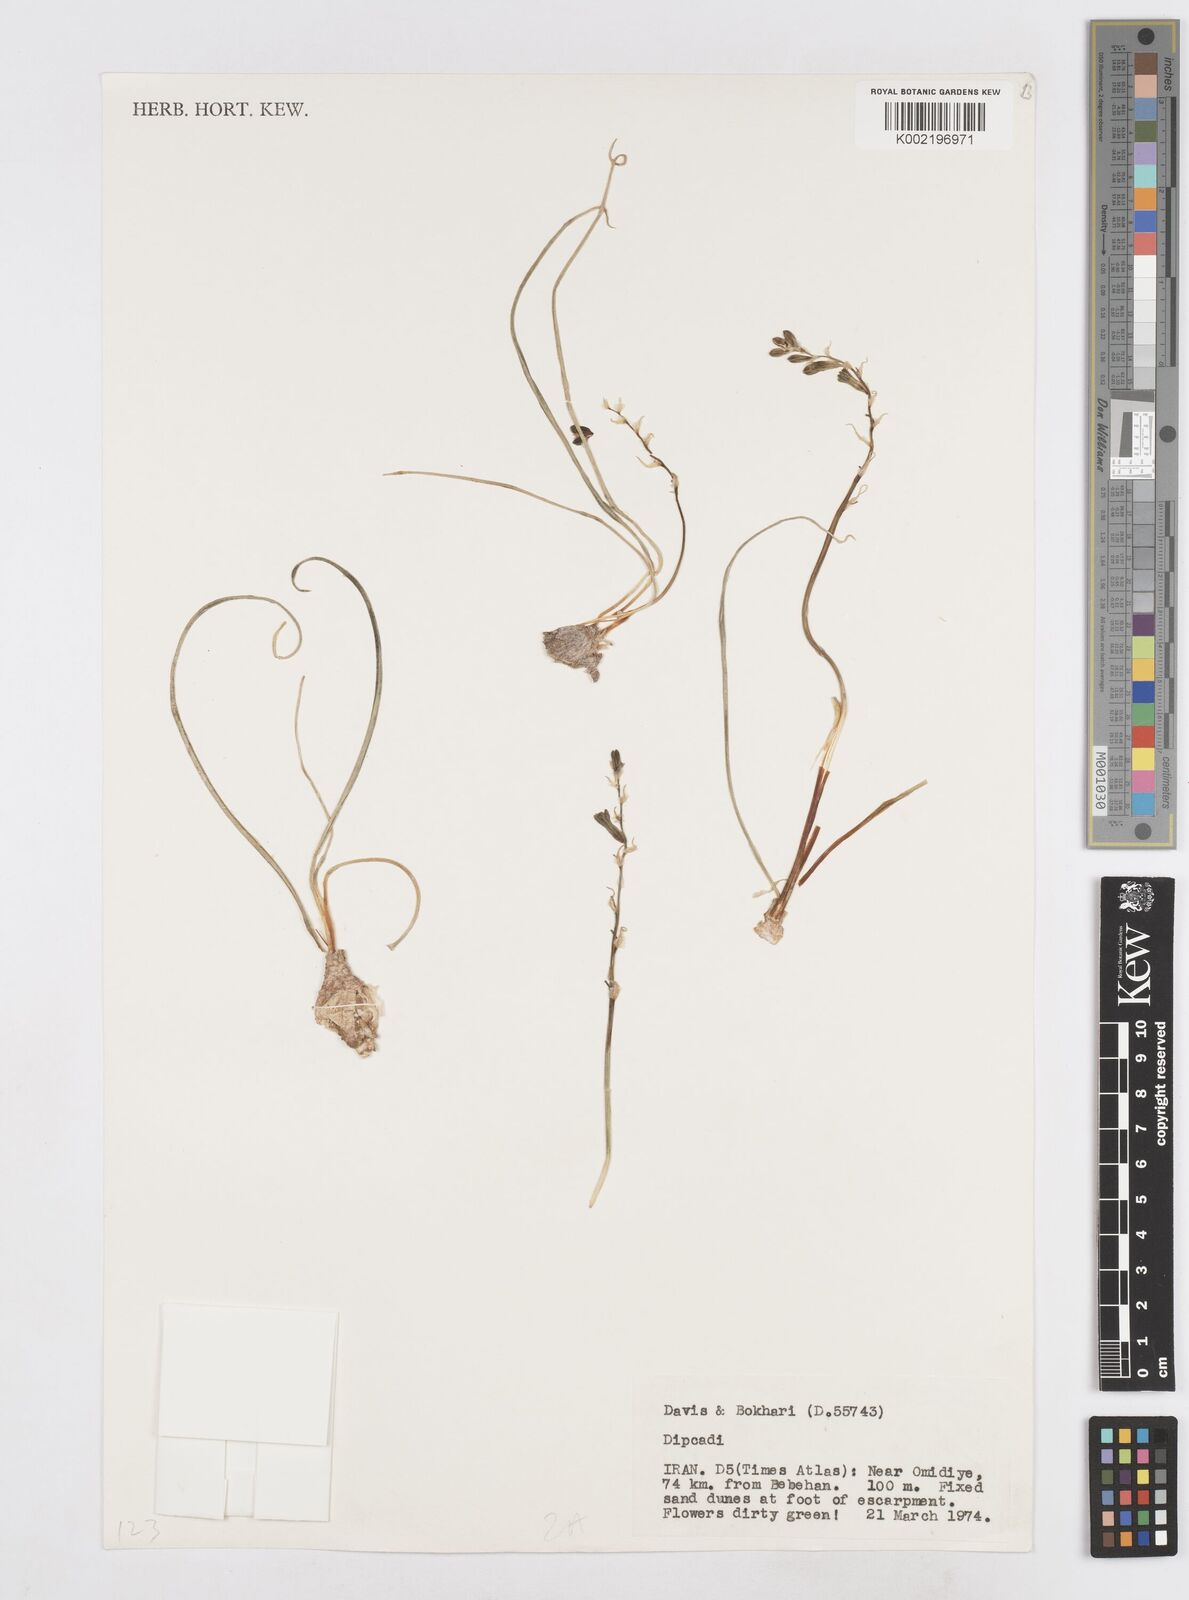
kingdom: Plantae
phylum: Tracheophyta
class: Liliopsida
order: Asparagales
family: Asparagaceae
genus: Dipcadi
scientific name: Dipcadi erythraeum
